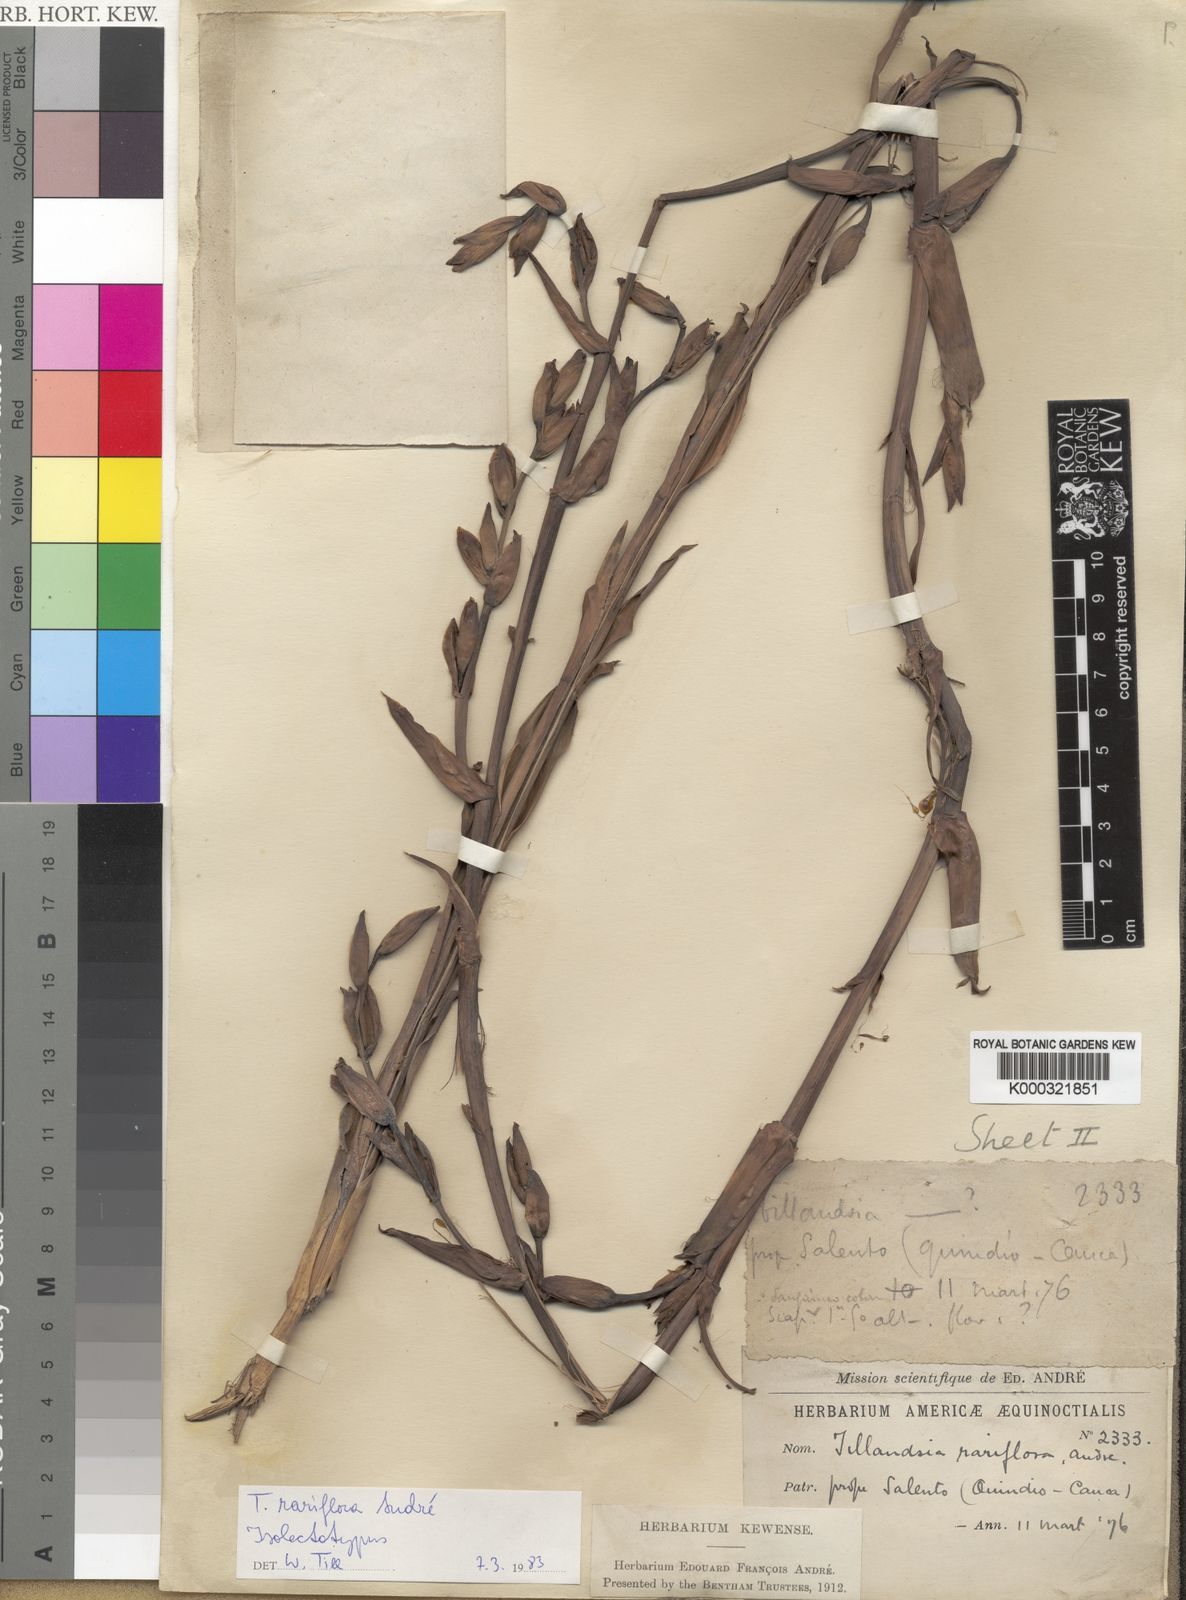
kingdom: Plantae
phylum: Tracheophyta
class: Liliopsida
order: Poales
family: Bromeliaceae
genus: Tillandsia
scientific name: Tillandsia
